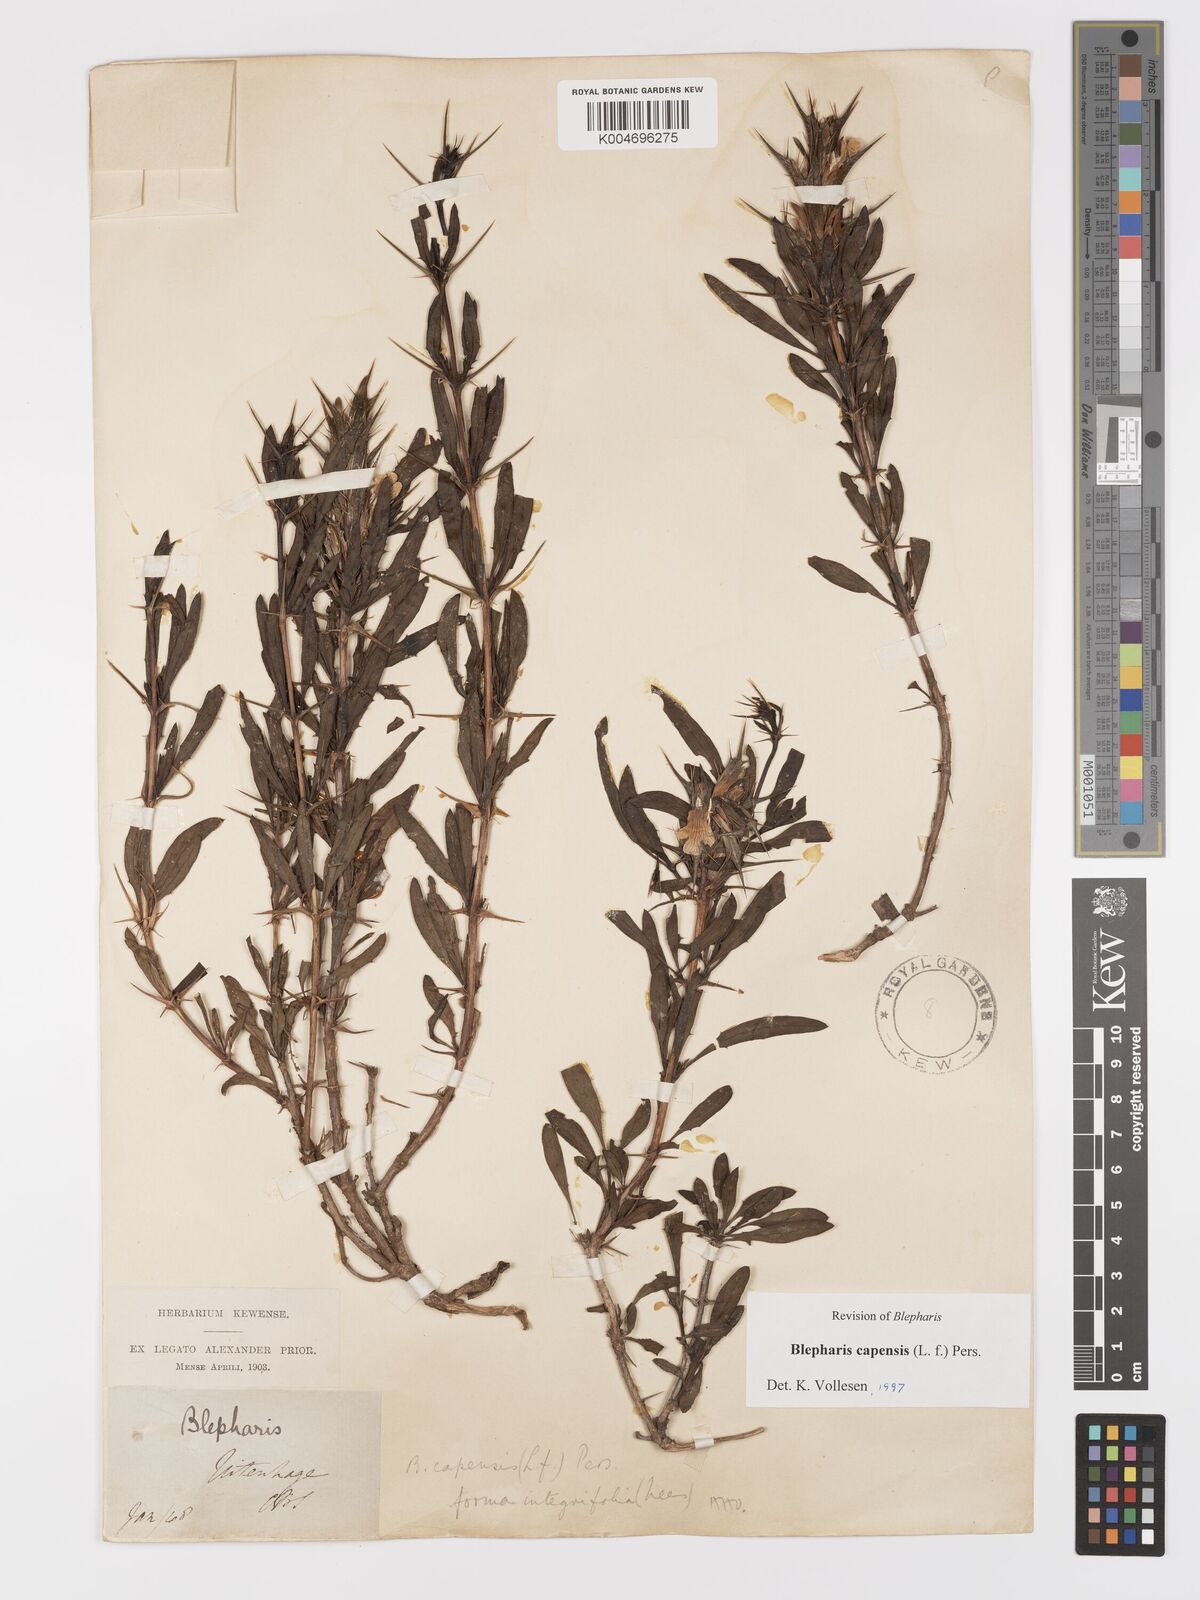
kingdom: Plantae
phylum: Tracheophyta
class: Magnoliopsida
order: Lamiales
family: Acanthaceae
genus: Blepharis
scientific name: Blepharis capensis
